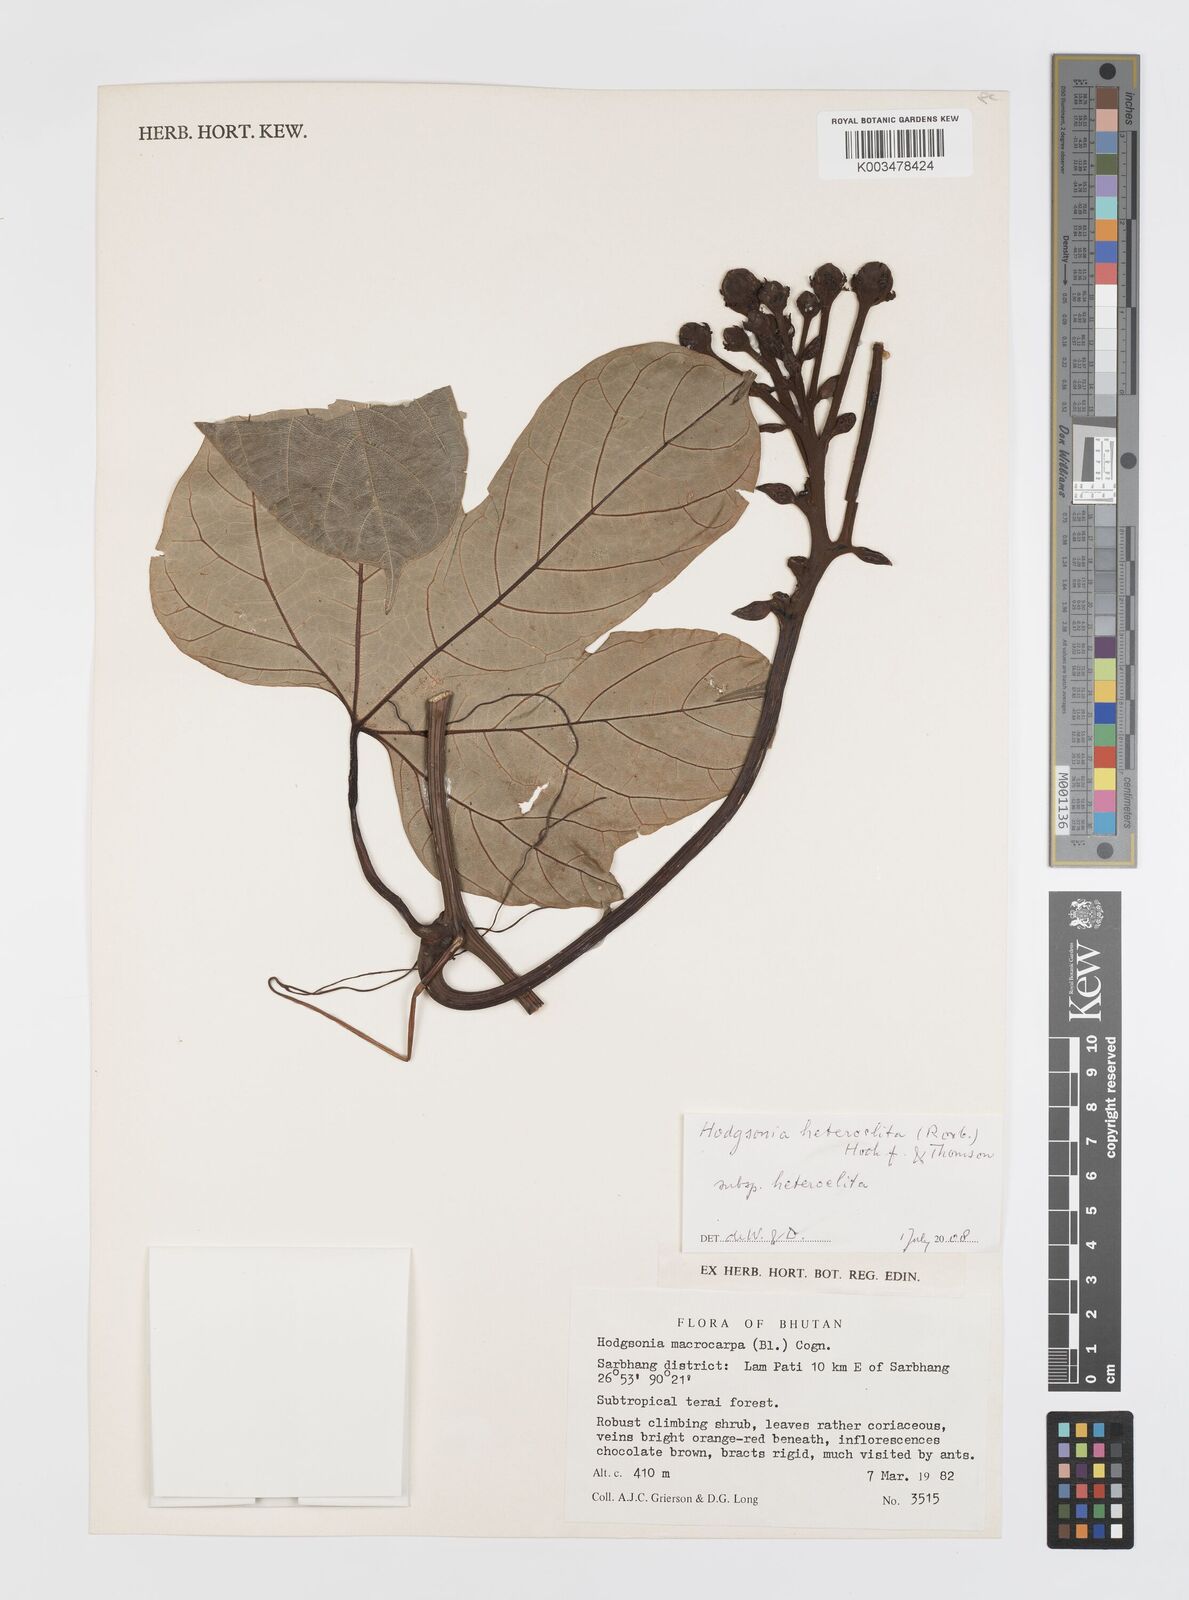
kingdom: Plantae
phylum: Tracheophyta
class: Magnoliopsida
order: Cucurbitales
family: Cucurbitaceae
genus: Hodgsonia
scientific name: Hodgsonia macrocarpa
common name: Chinese lardfruit
